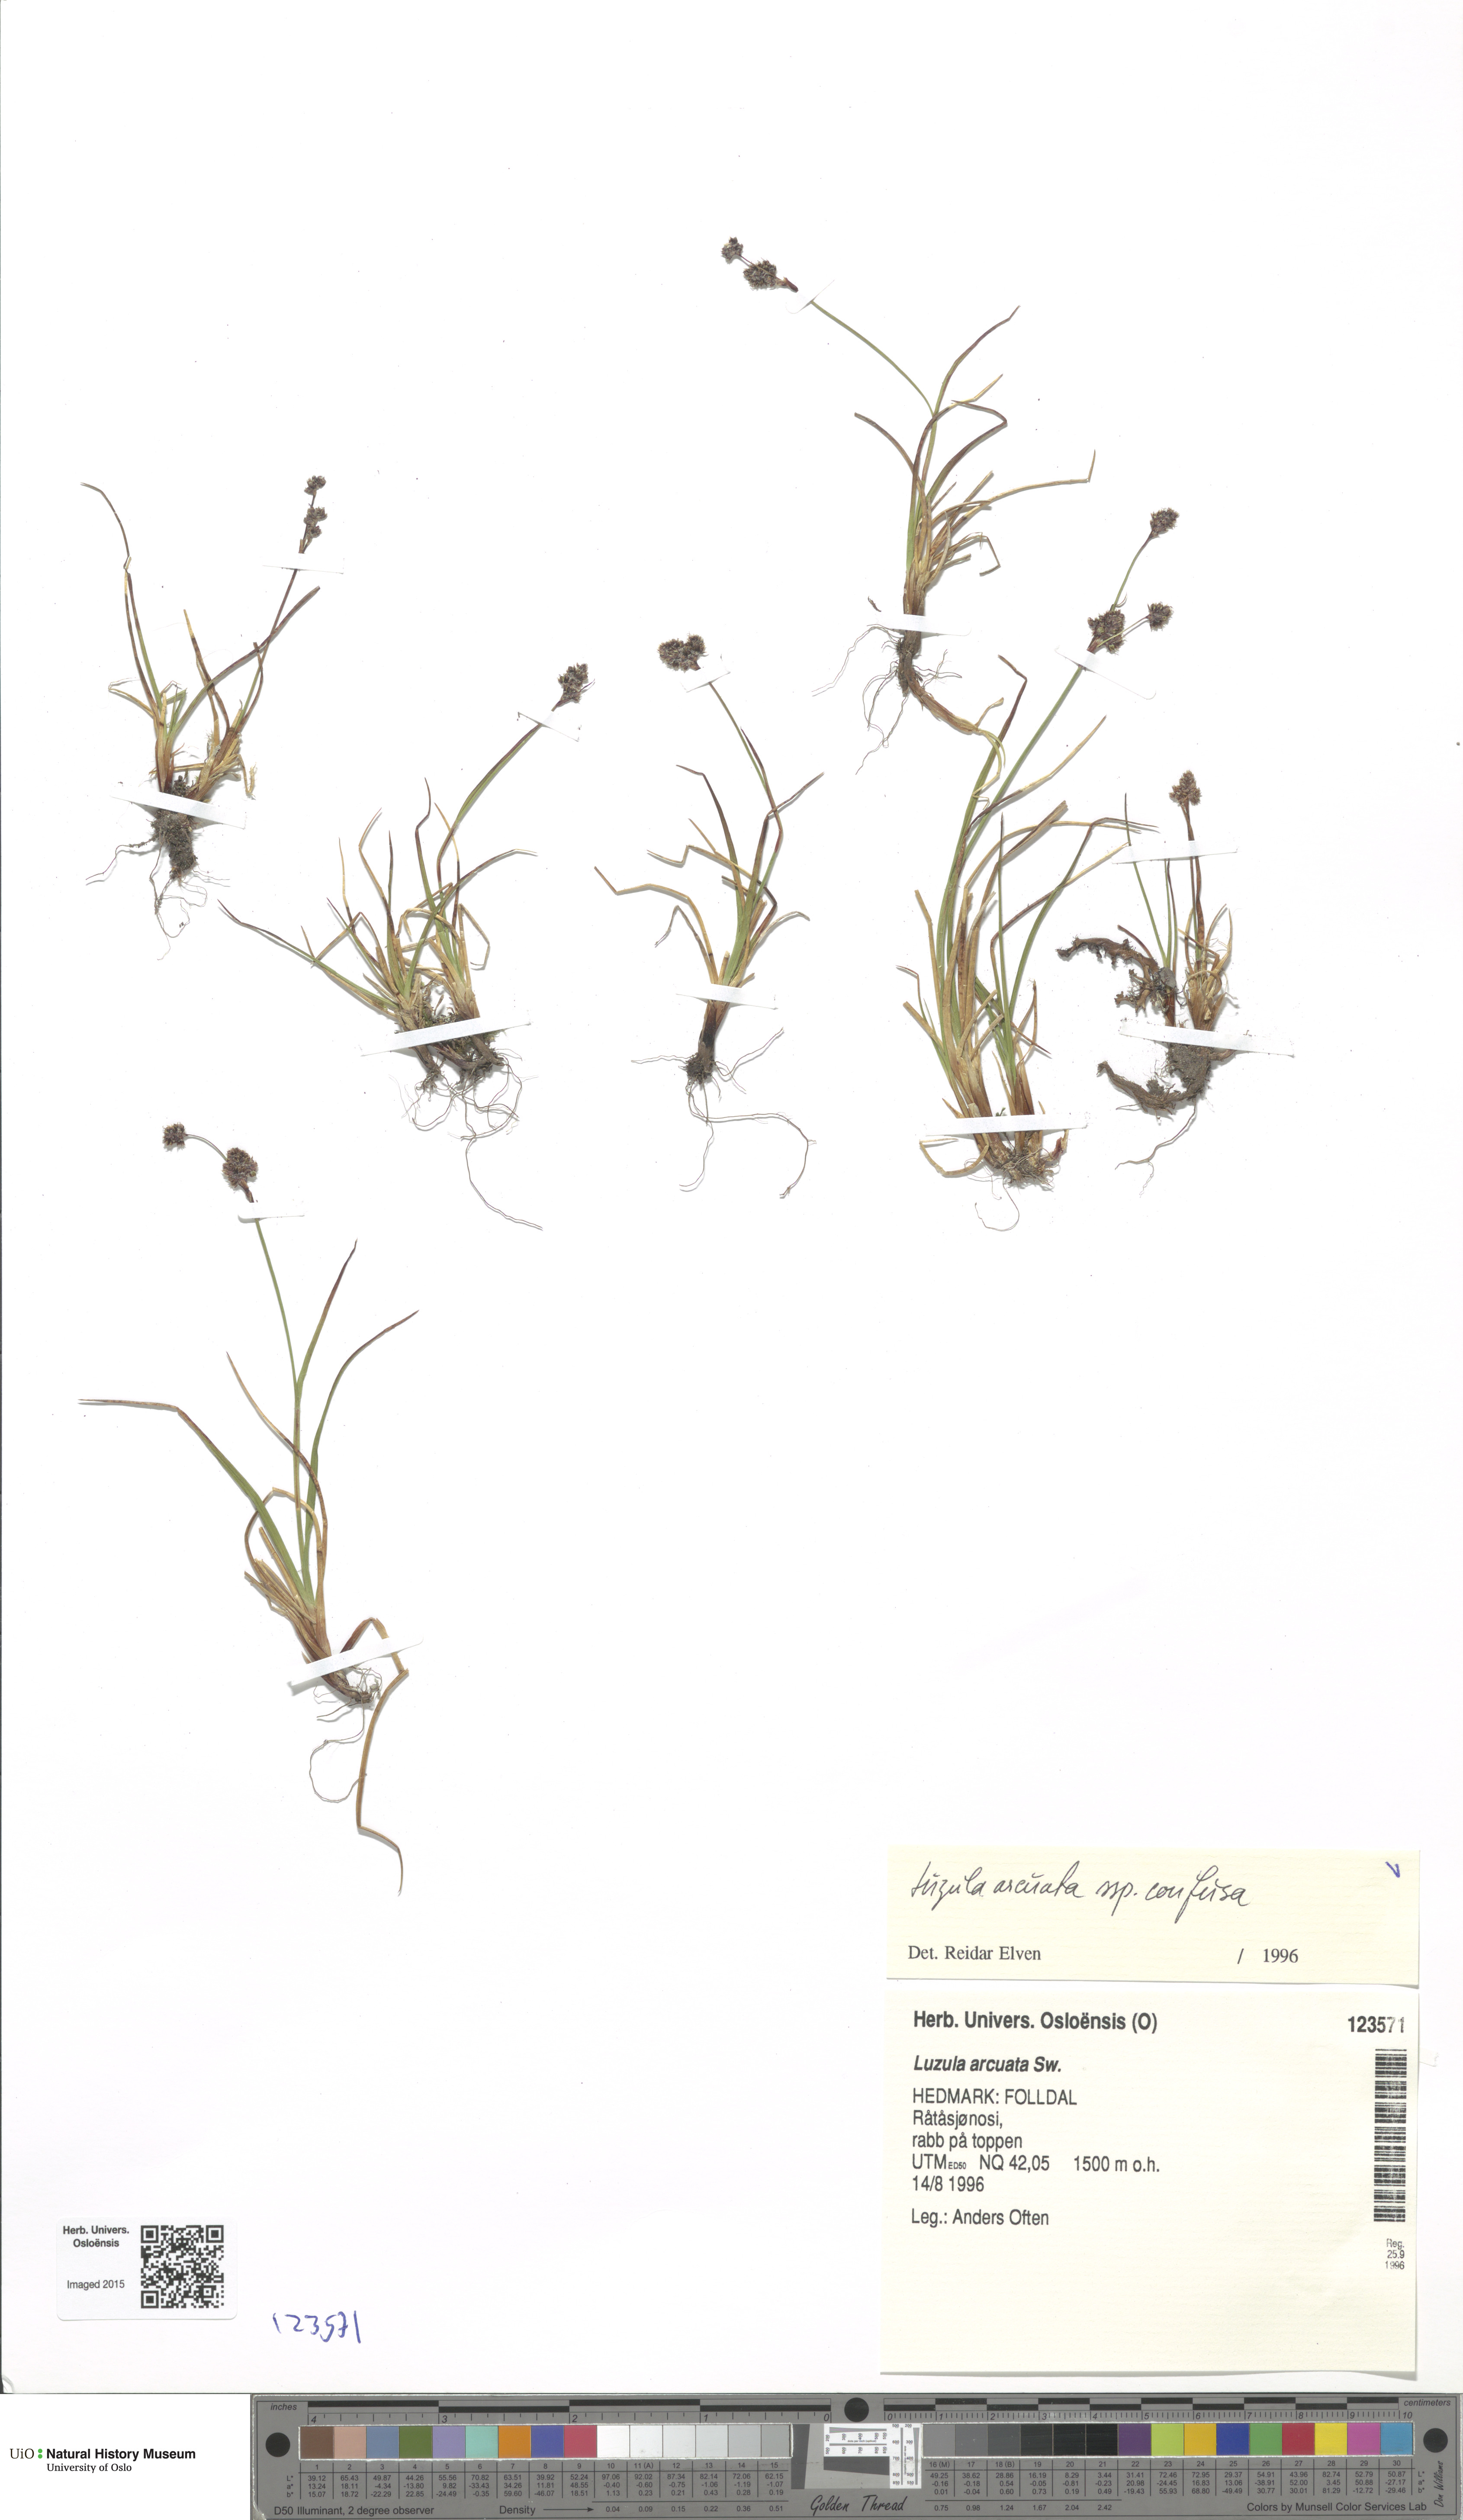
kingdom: Plantae
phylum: Tracheophyta
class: Liliopsida
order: Poales
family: Juncaceae
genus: Luzula
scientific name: Luzula confusa
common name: Northern wood rush
